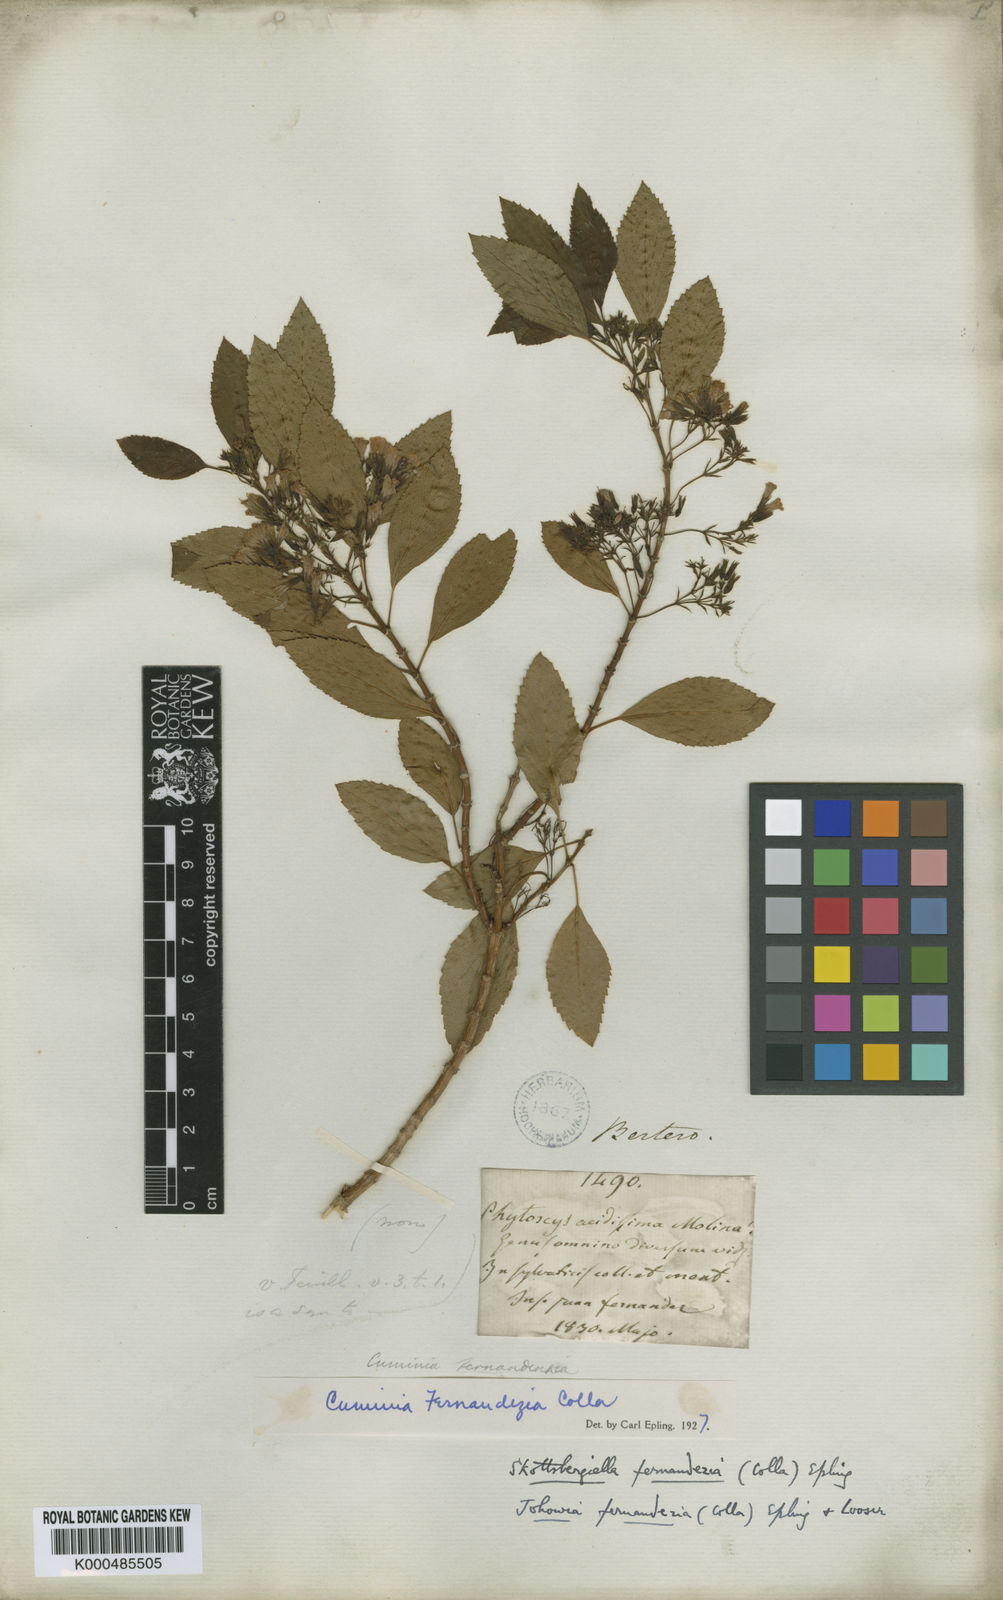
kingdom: Plantae
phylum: Tracheophyta
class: Magnoliopsida
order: Lamiales
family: Lamiaceae
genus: Cuminia
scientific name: Cuminia eriantha
